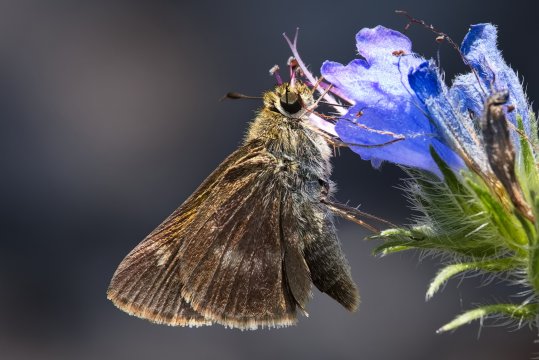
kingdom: Animalia
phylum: Arthropoda
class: Insecta
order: Lepidoptera
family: Hesperiidae
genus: Polites
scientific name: Polites egeremet
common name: Northern Broken-Dash
